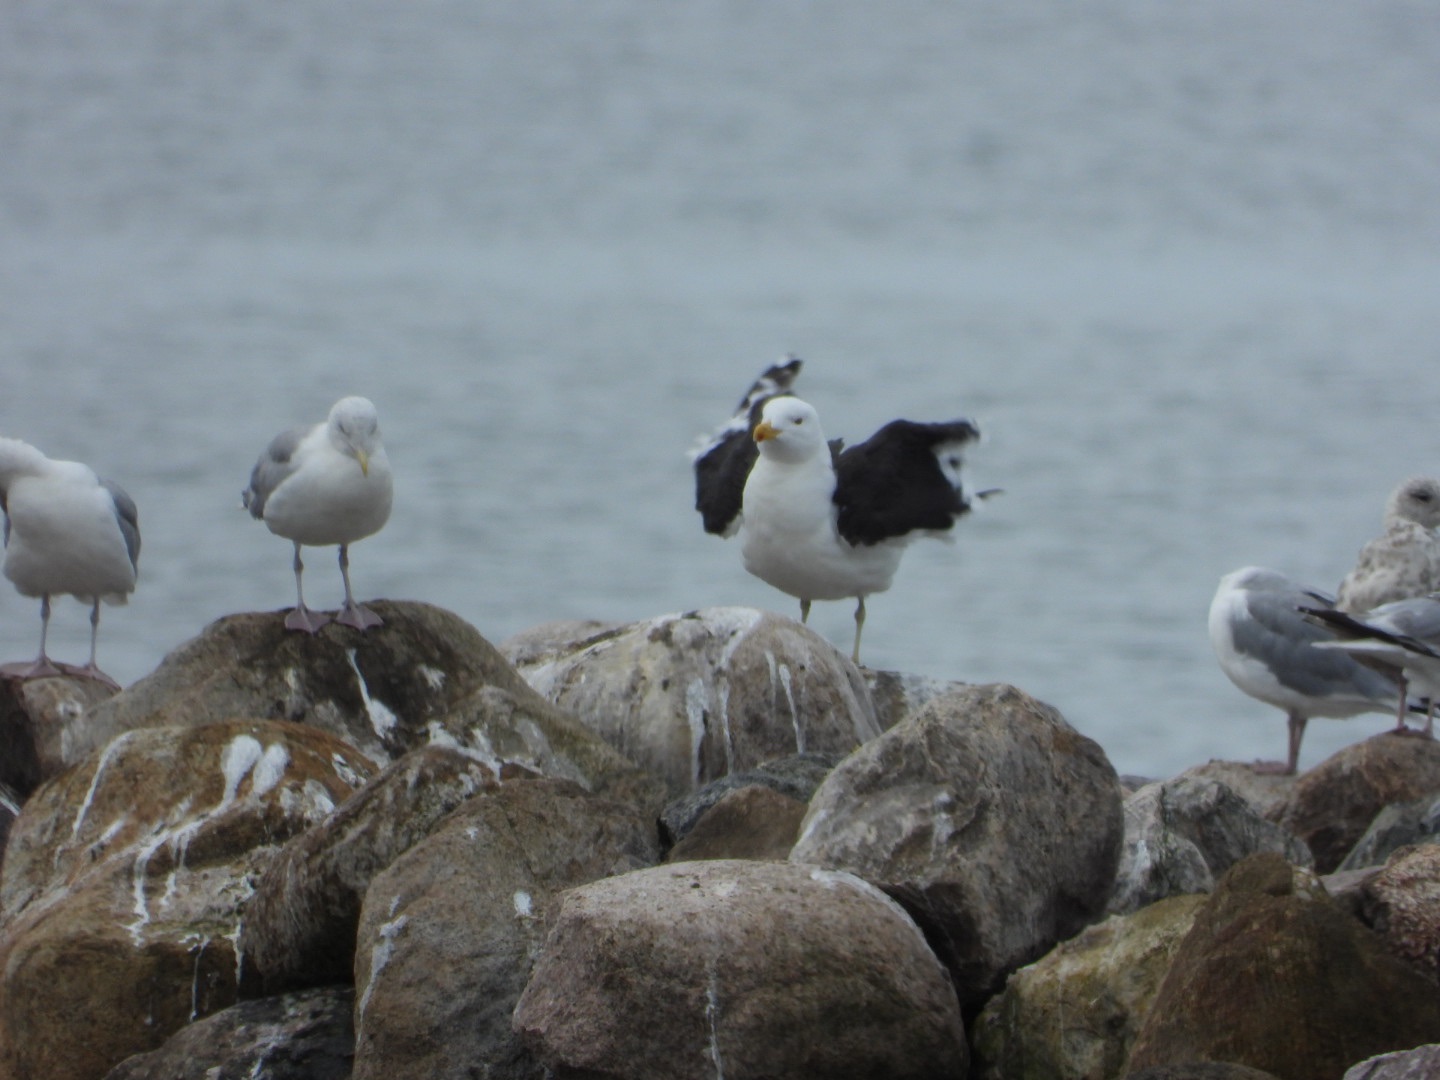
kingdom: Animalia
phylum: Chordata
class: Aves
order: Charadriiformes
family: Laridae
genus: Larus
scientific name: Larus marinus
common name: Svartbag
